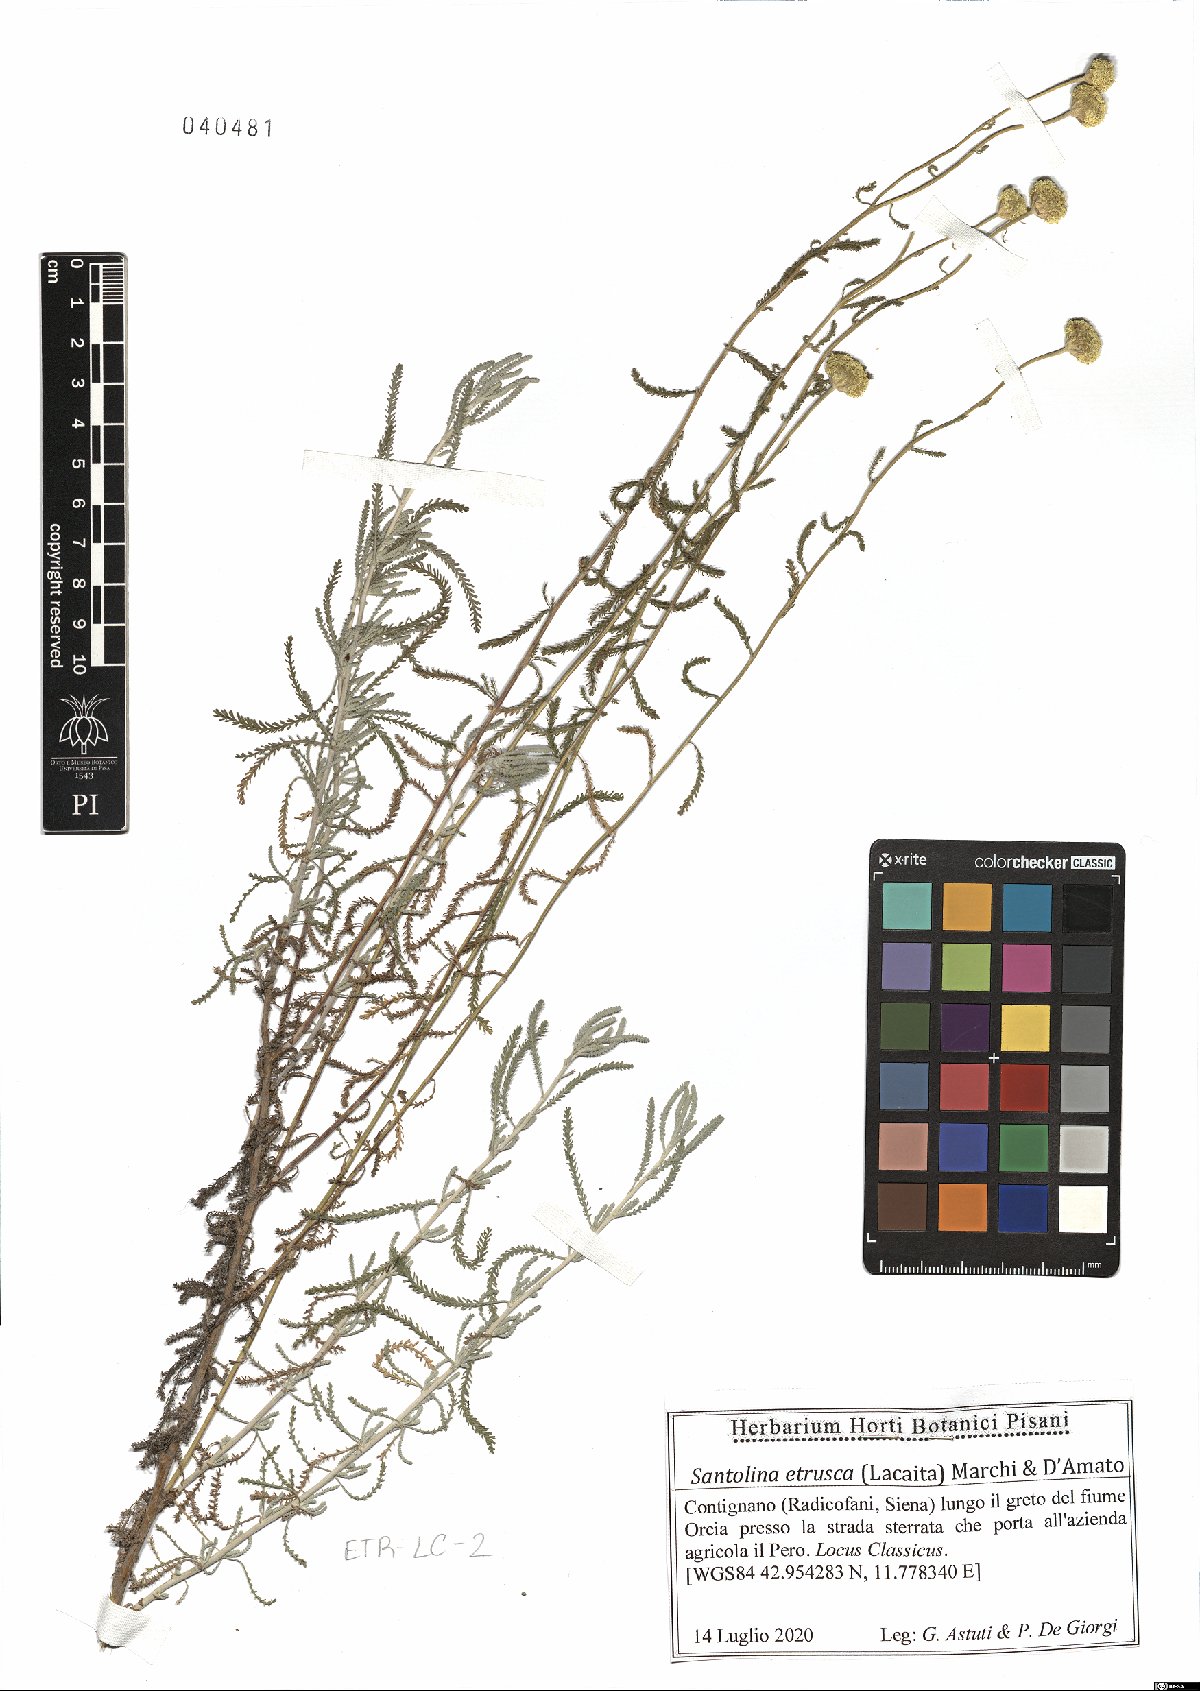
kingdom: Plantae
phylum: Tracheophyta
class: Magnoliopsida
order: Asterales
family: Asteraceae
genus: Santolina
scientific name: Santolina etrusca
